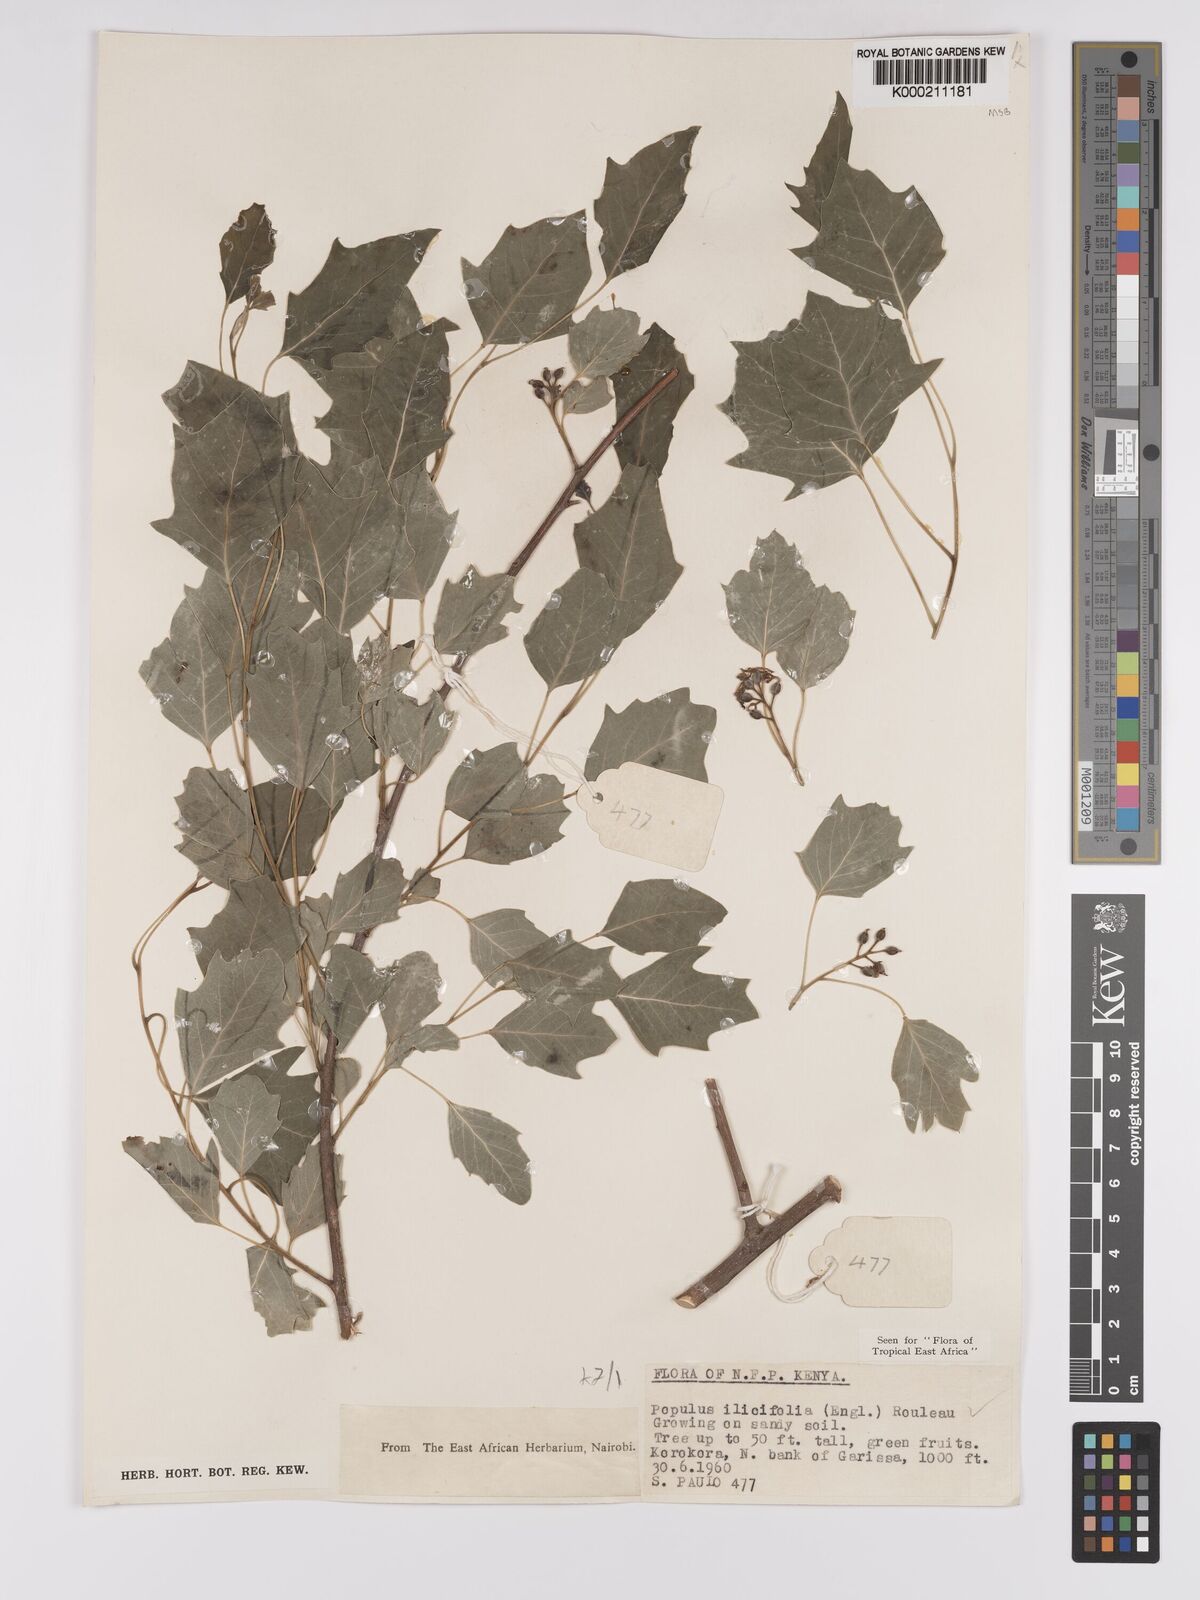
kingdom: Plantae
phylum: Tracheophyta
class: Magnoliopsida
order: Malpighiales
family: Salicaceae
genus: Populus
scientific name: Populus ilicifolia
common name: Tana river poplar
